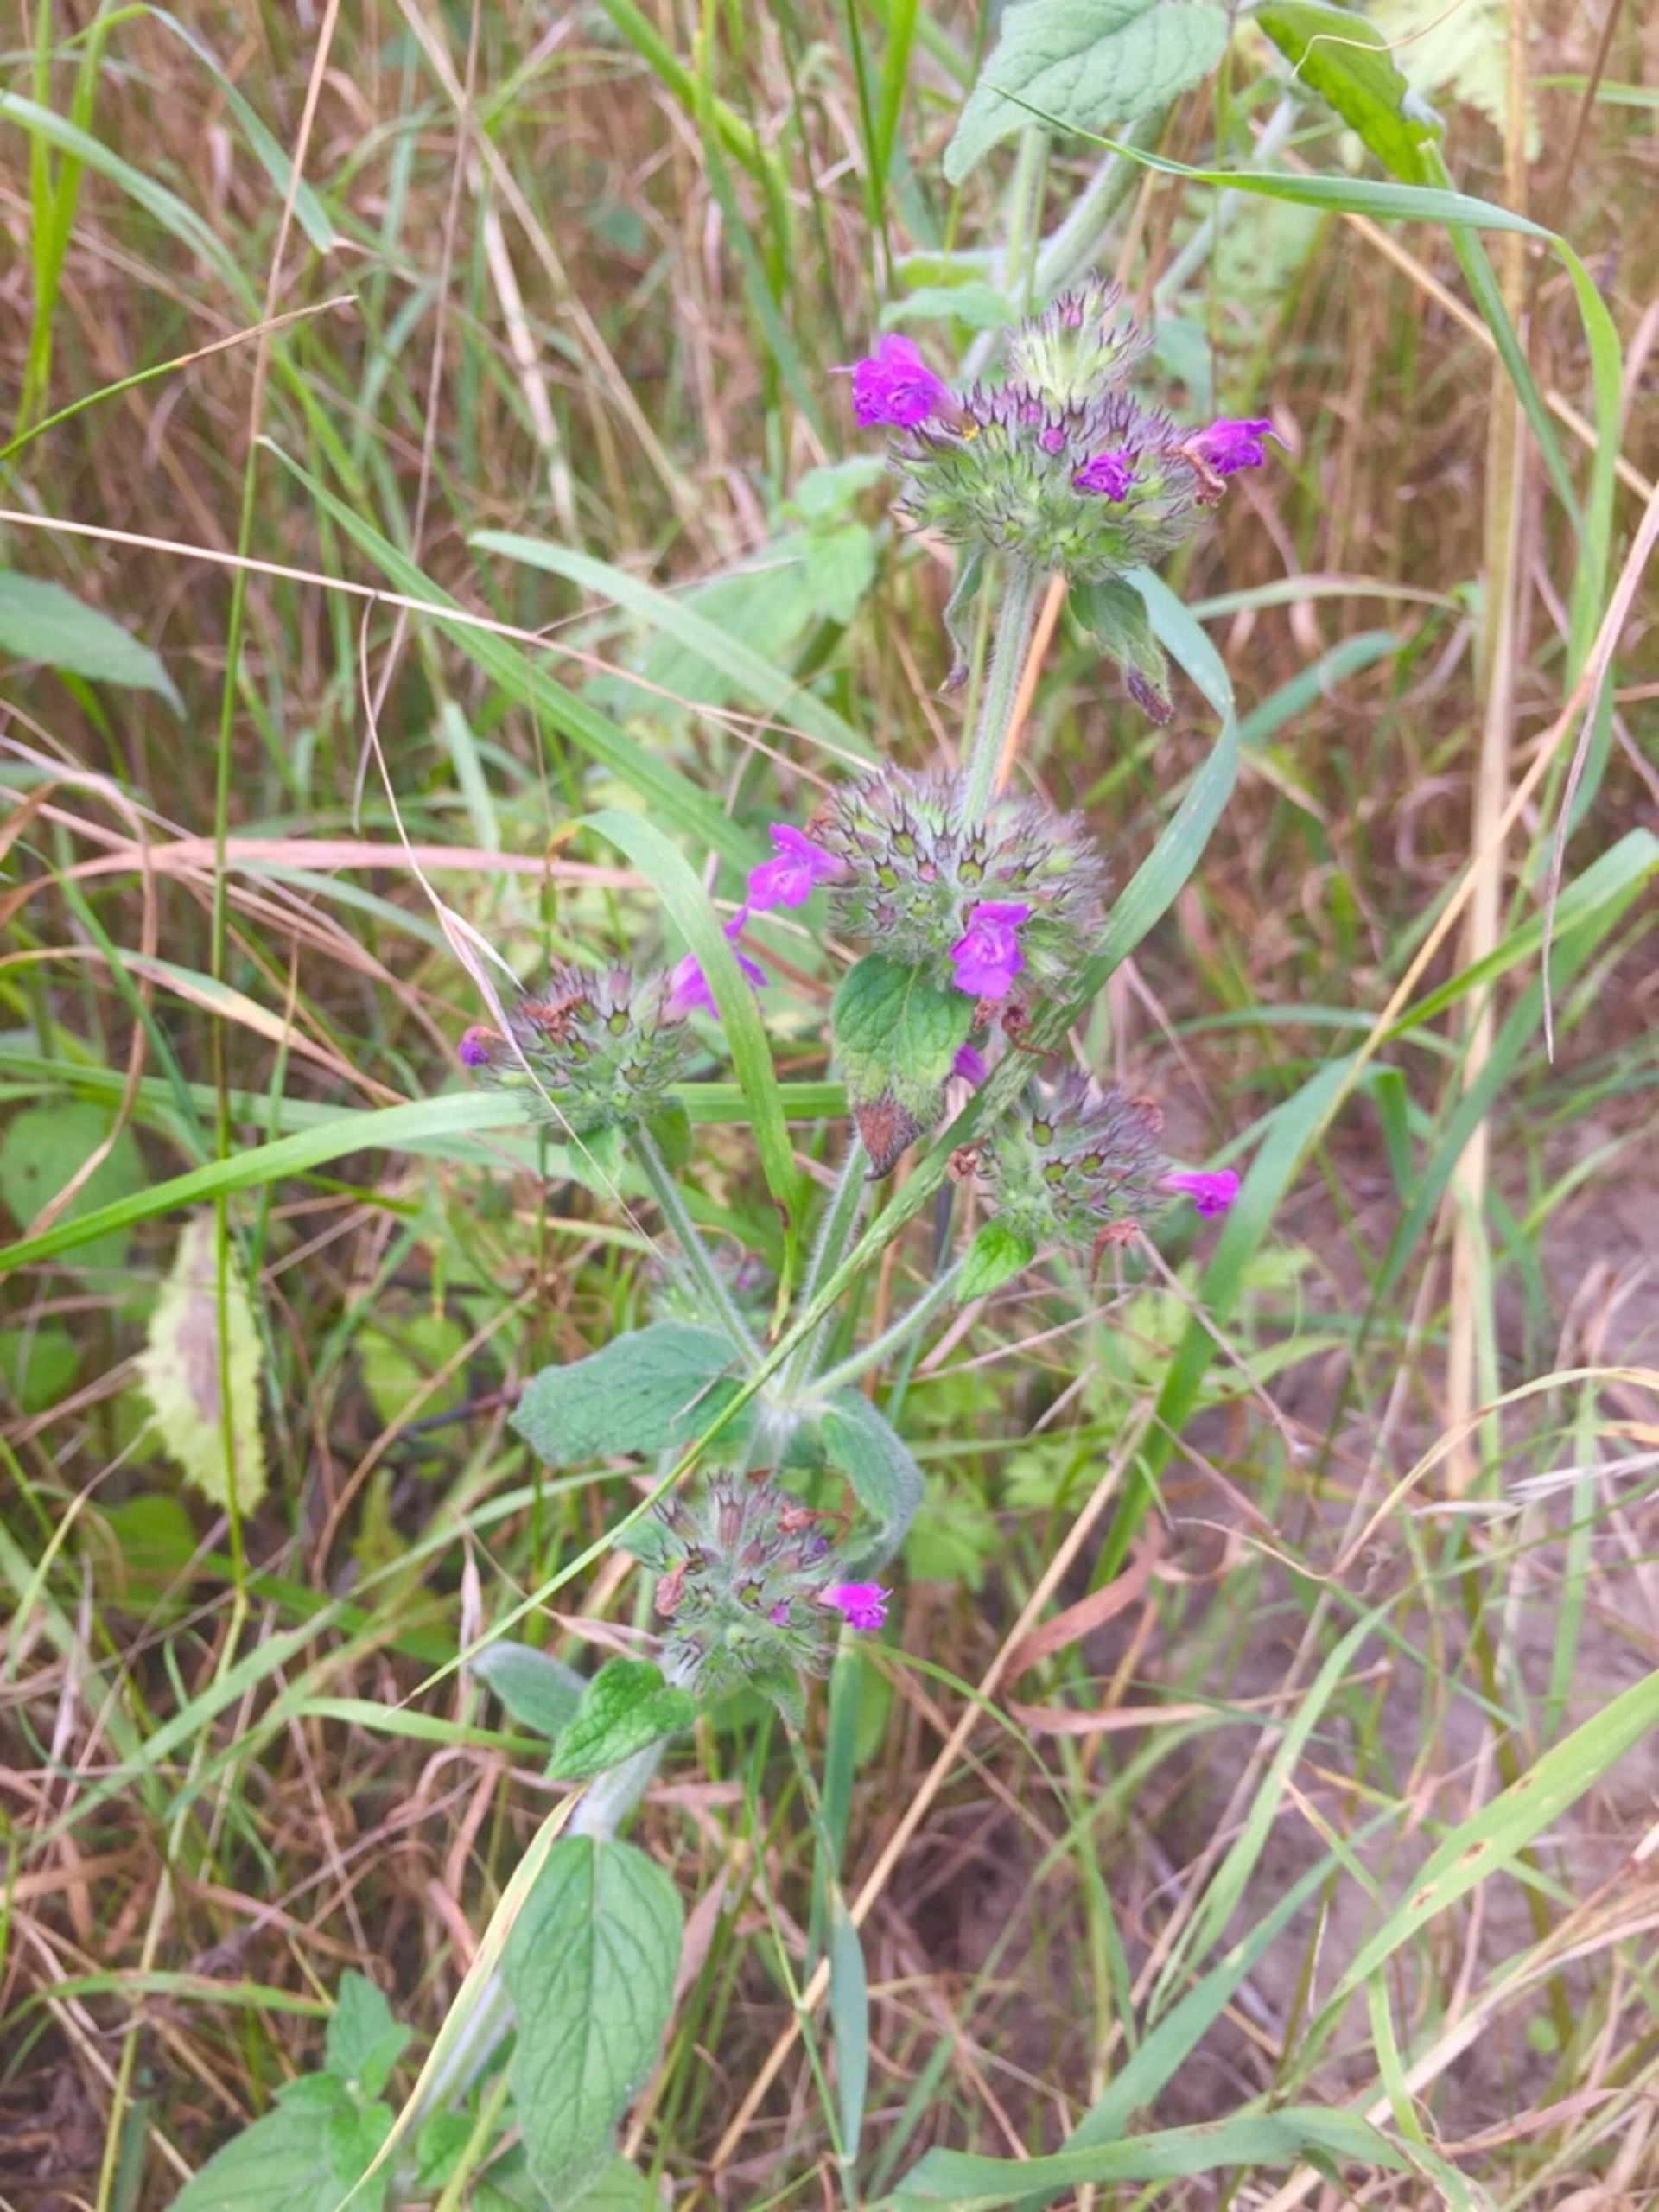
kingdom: Plantae
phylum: Tracheophyta
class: Magnoliopsida
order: Lamiales
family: Lamiaceae
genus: Clinopodium
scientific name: Clinopodium vulgare
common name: Kransbørste
